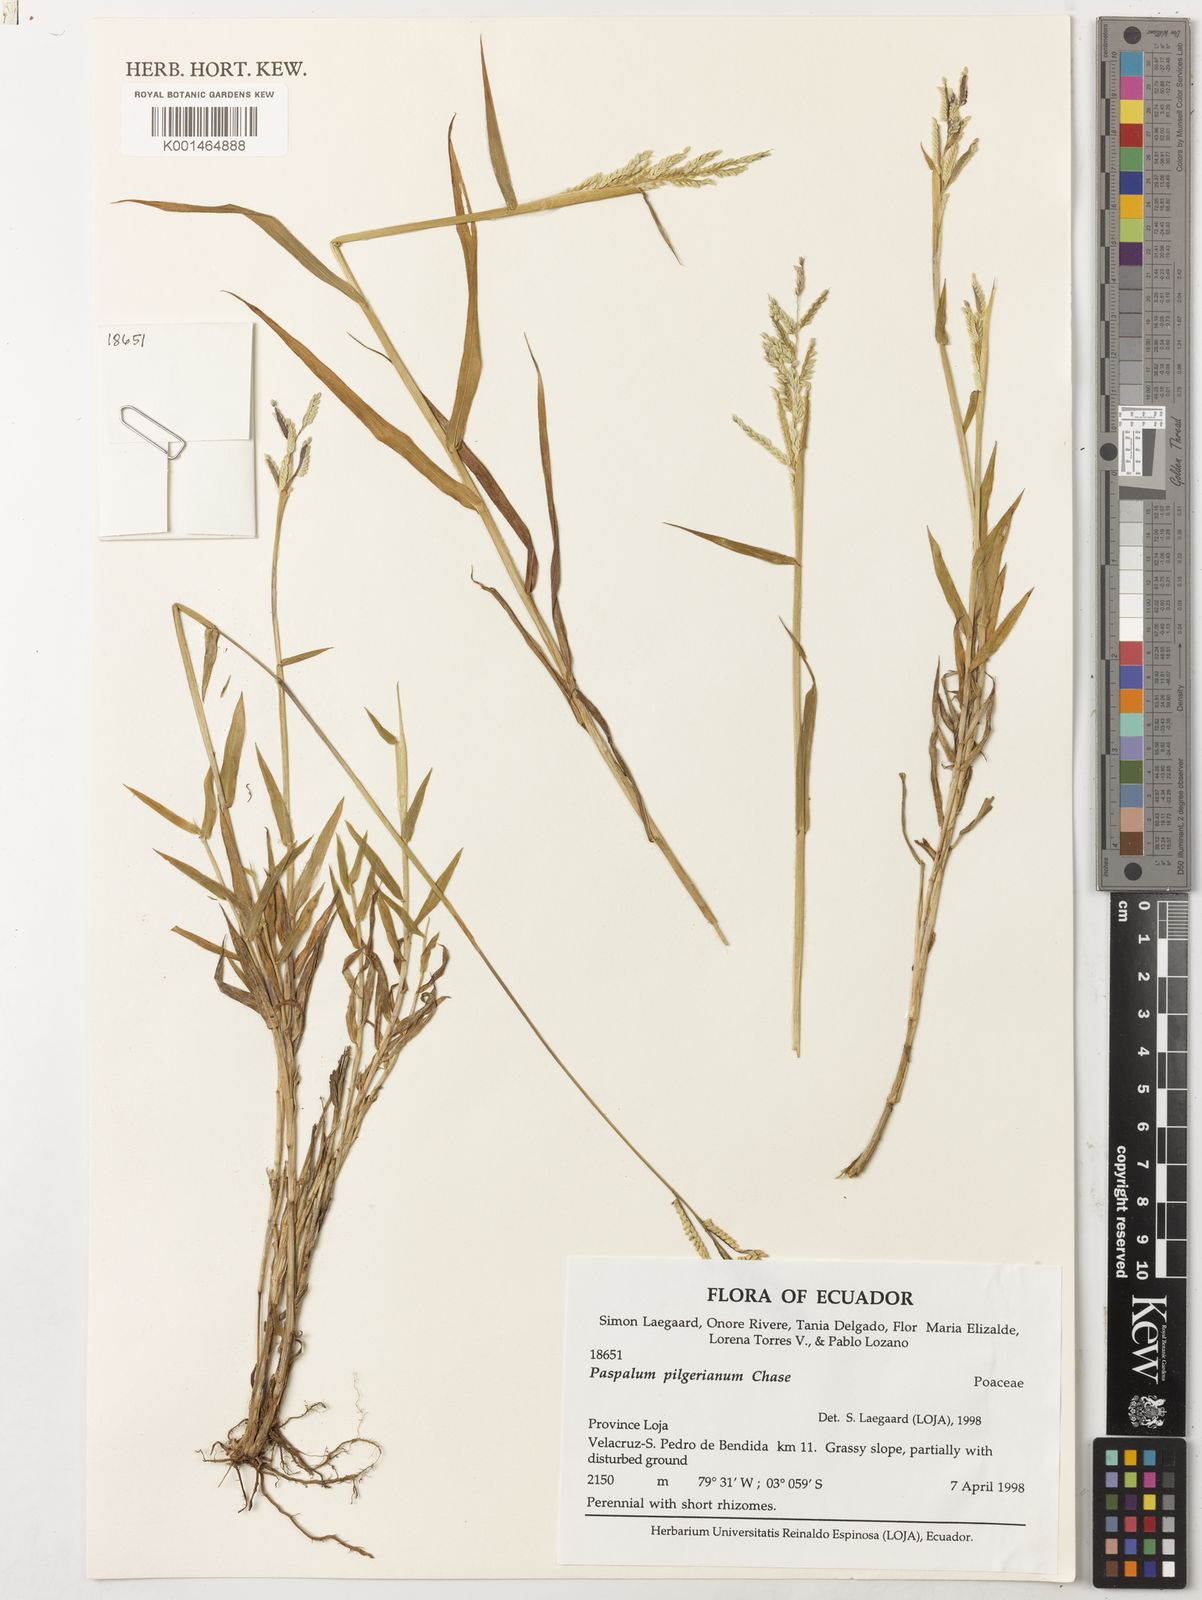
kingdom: Plantae
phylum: Tracheophyta
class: Liliopsida
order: Poales
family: Poaceae
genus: Paspalum
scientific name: Paspalum pilgerianum
